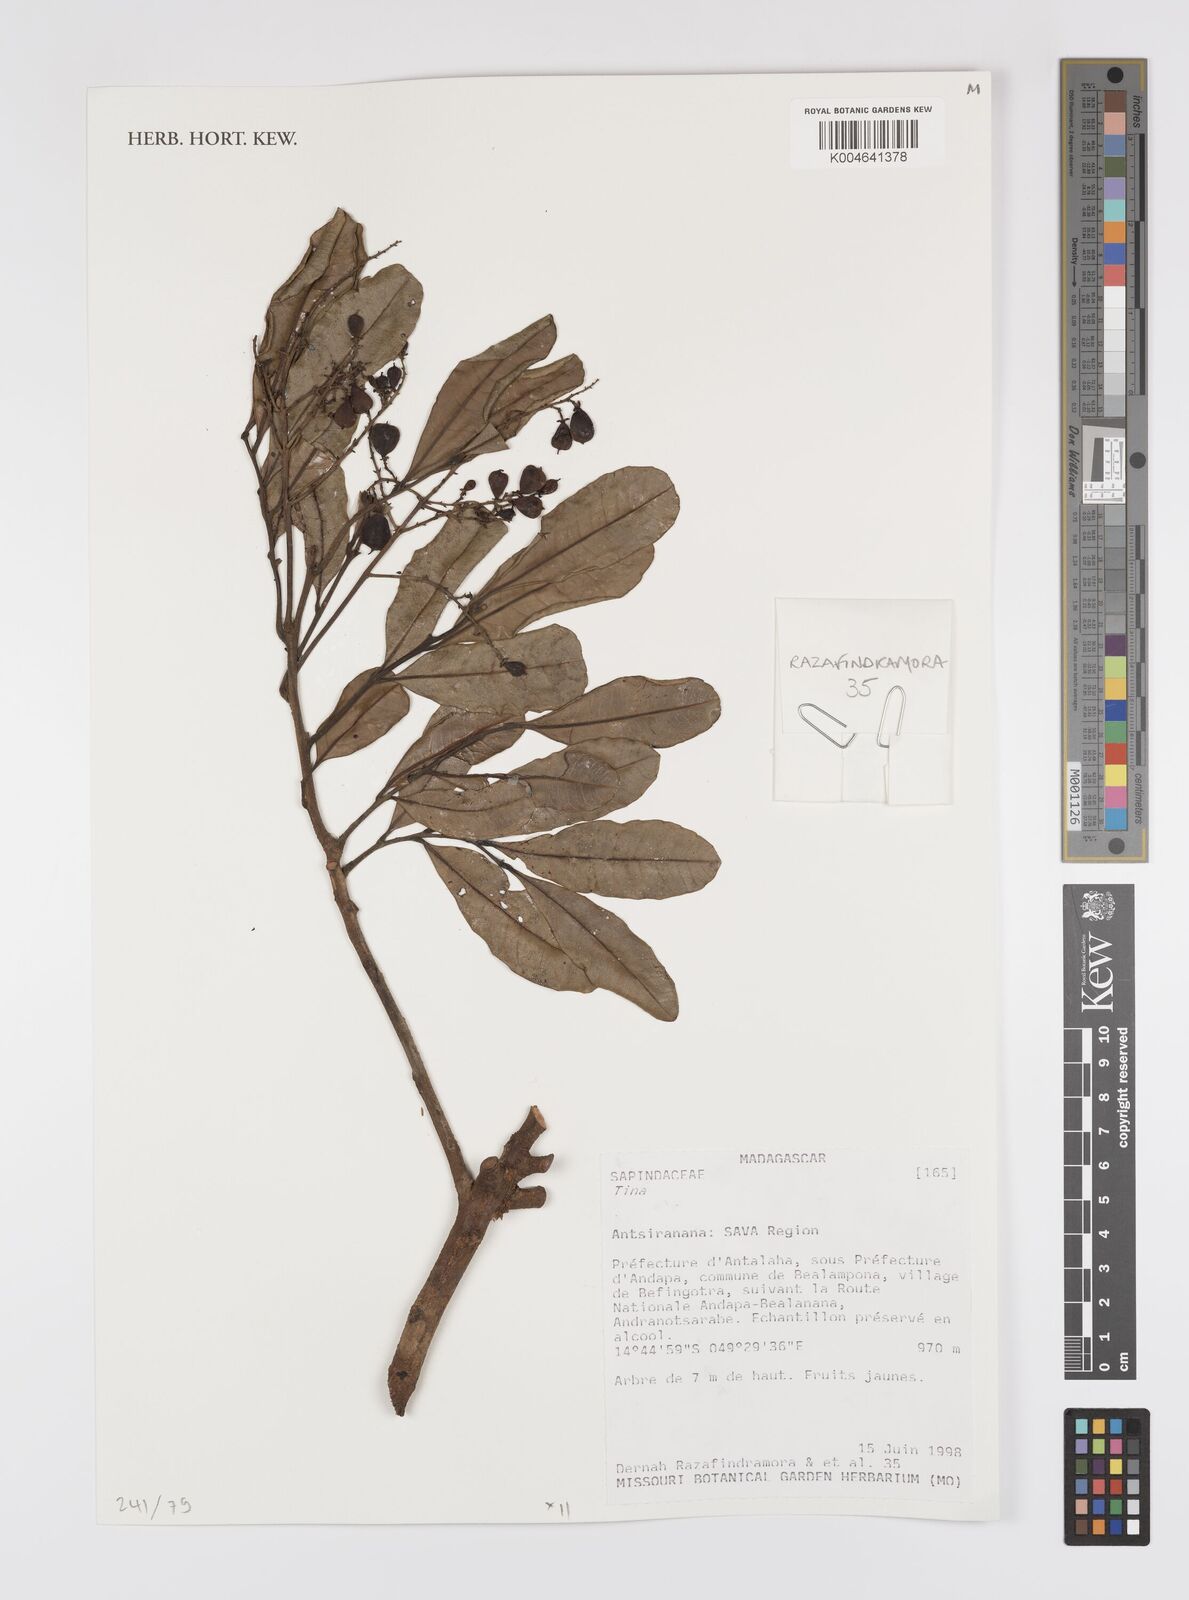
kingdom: Plantae
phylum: Tracheophyta
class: Magnoliopsida
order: Sapindales
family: Sapindaceae
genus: Tina
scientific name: Tina
